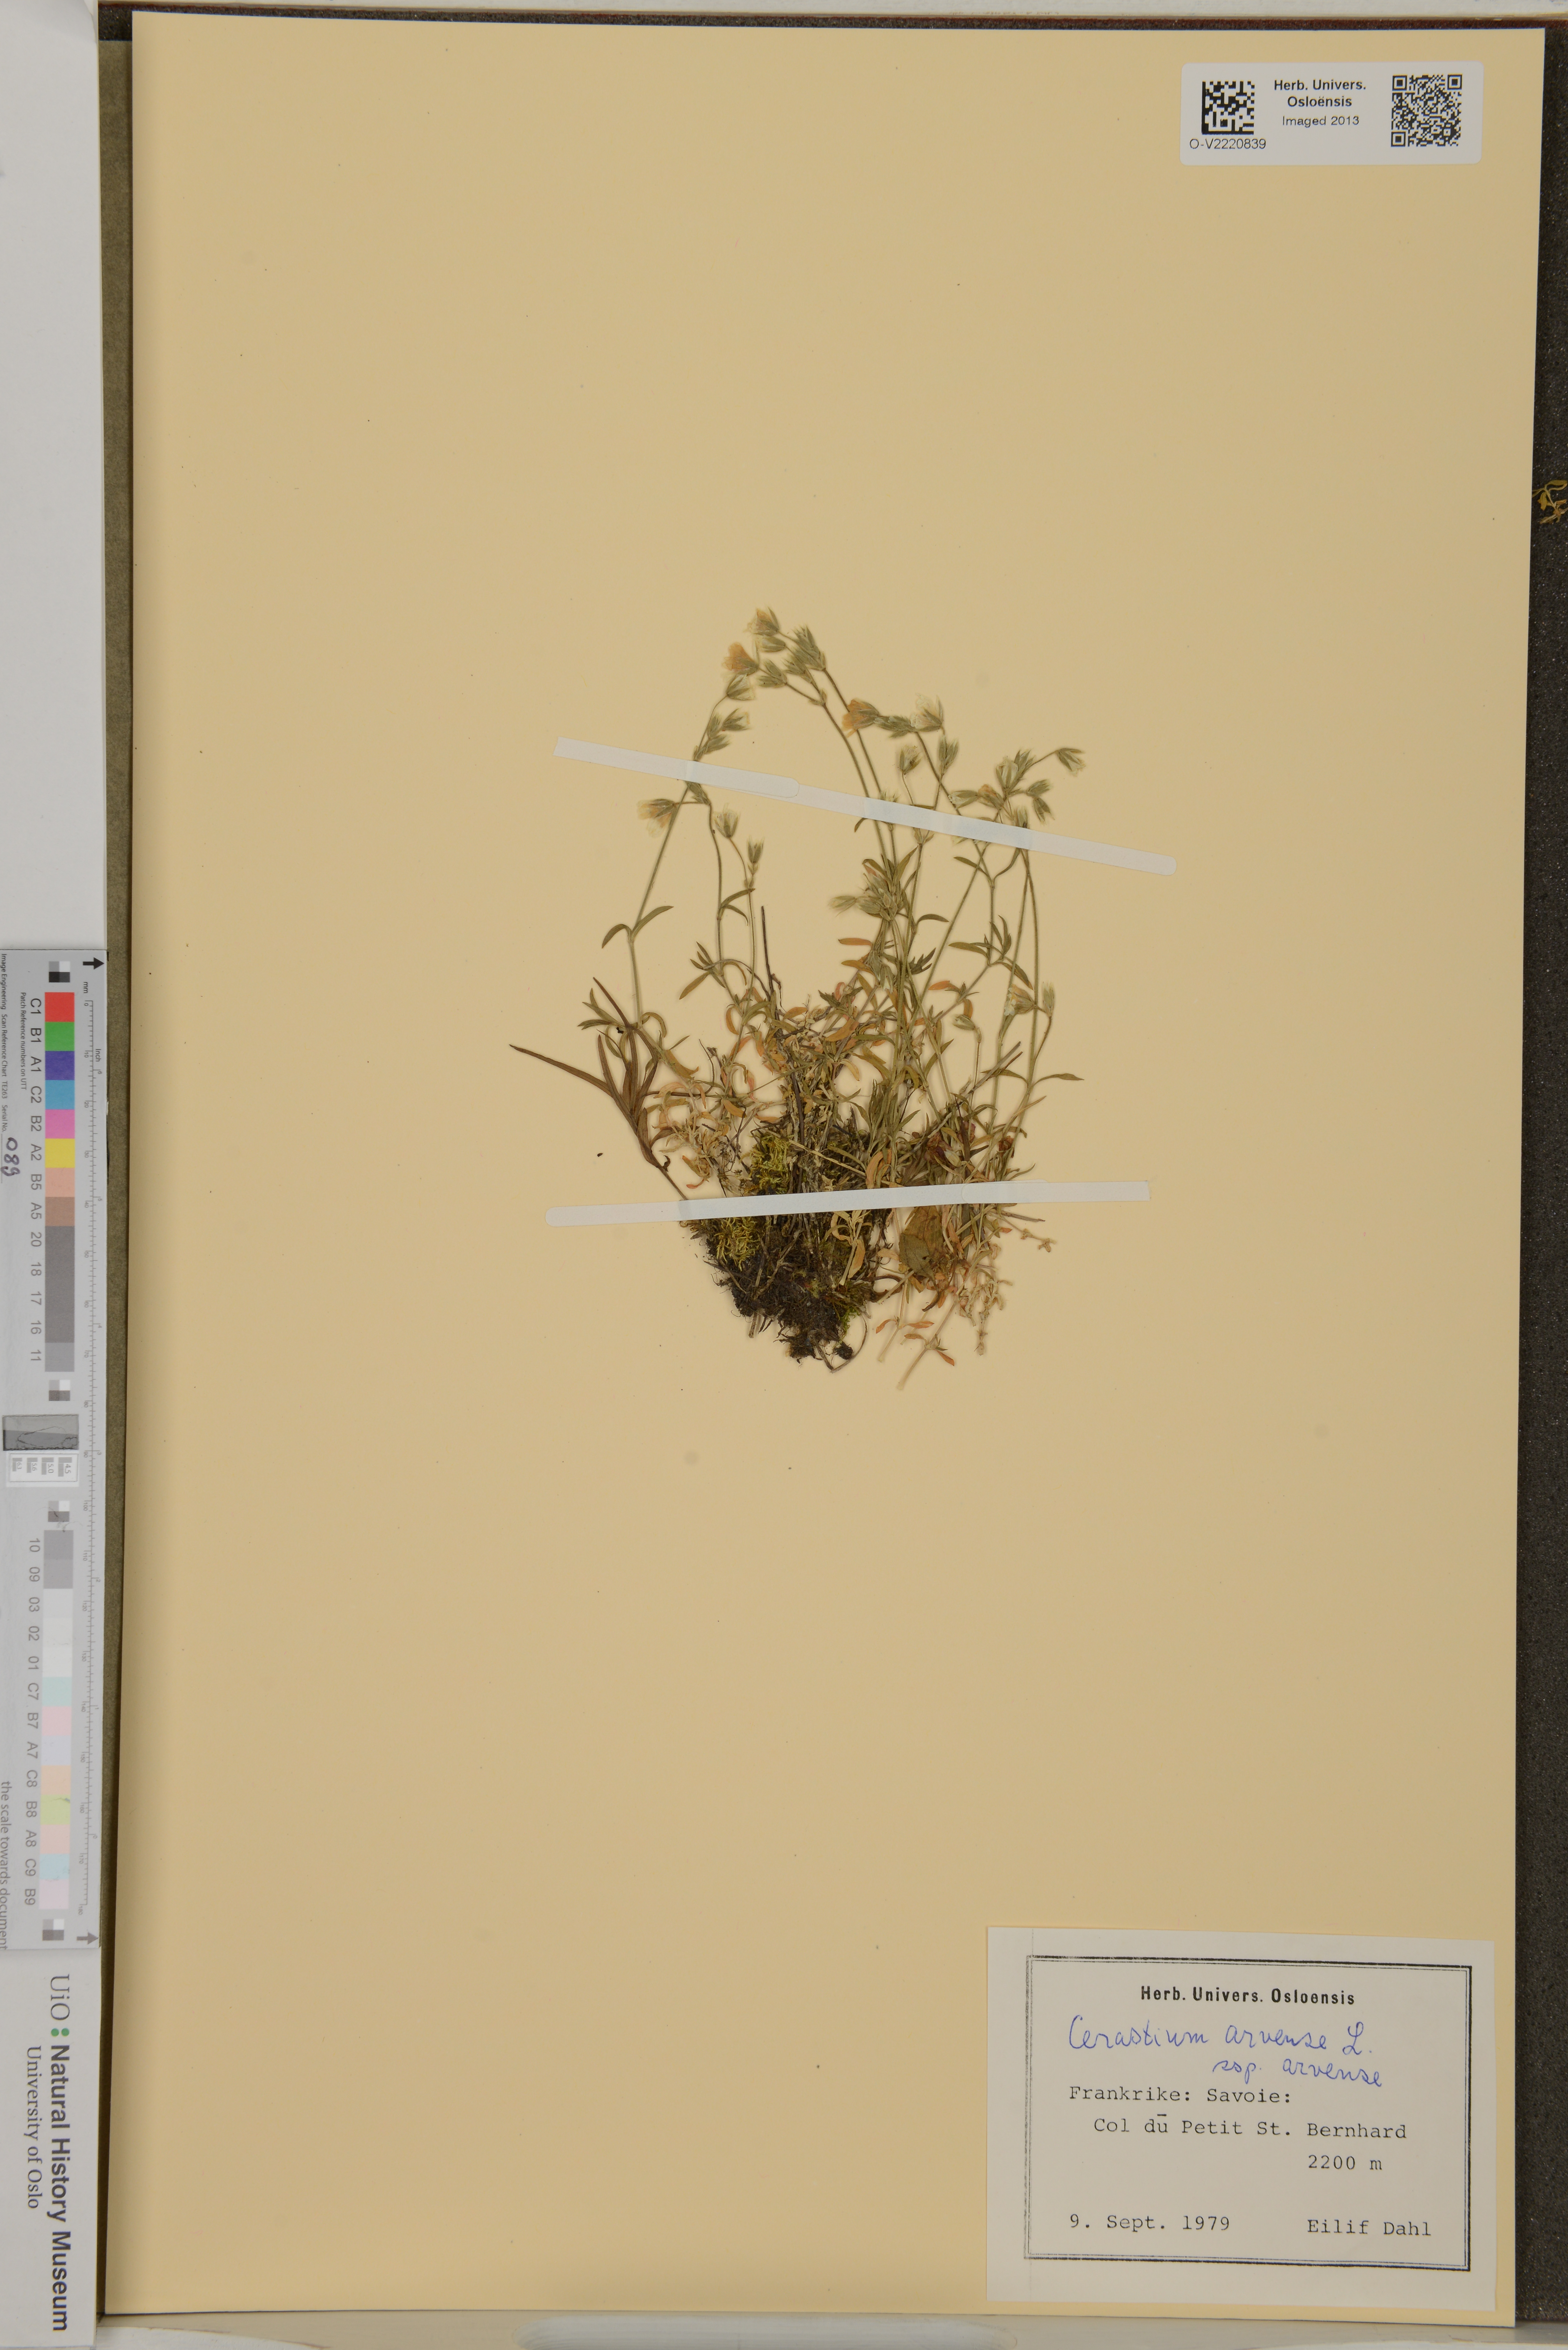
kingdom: Plantae
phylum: Tracheophyta
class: Magnoliopsida
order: Caryophyllales
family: Caryophyllaceae
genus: Cerastium
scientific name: Cerastium arvense
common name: Field mouse-ear
